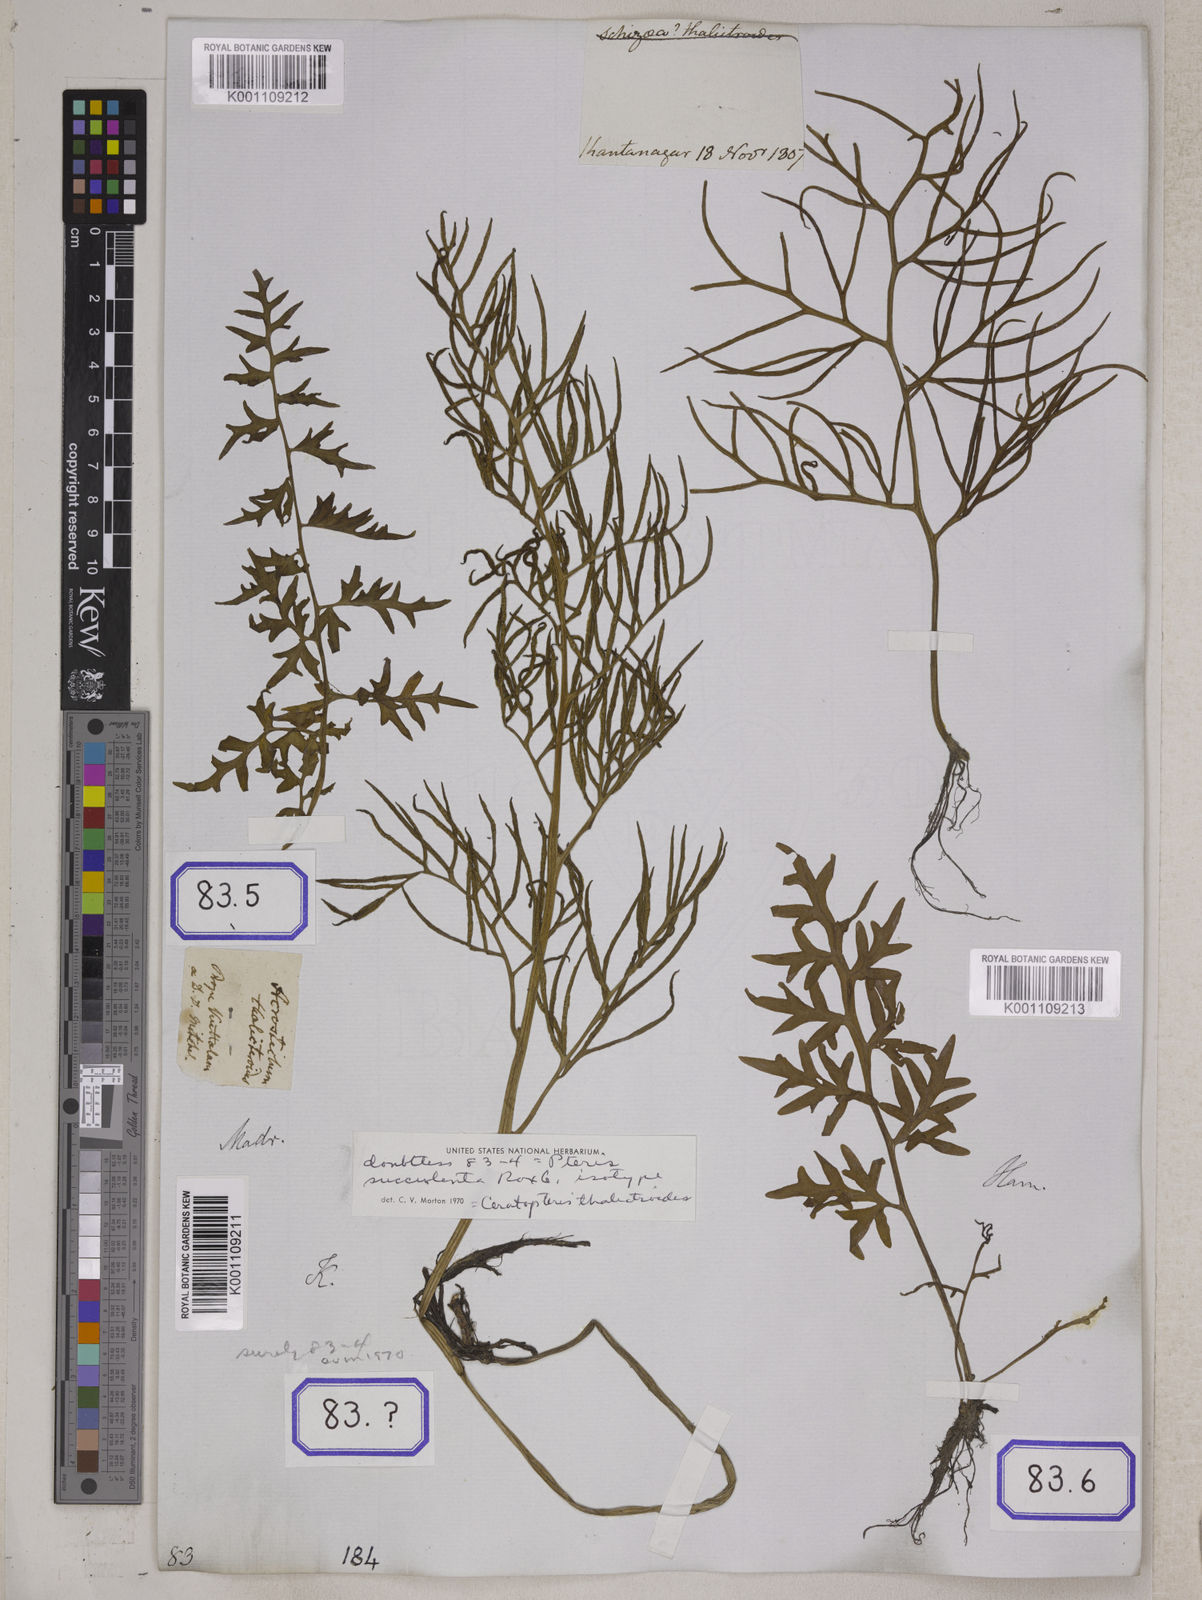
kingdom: Plantae
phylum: Tracheophyta
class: Polypodiopsida
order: Polypodiales
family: Pteridaceae
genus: Ceratopteris
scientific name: Ceratopteris thalictroides
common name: Water fern
